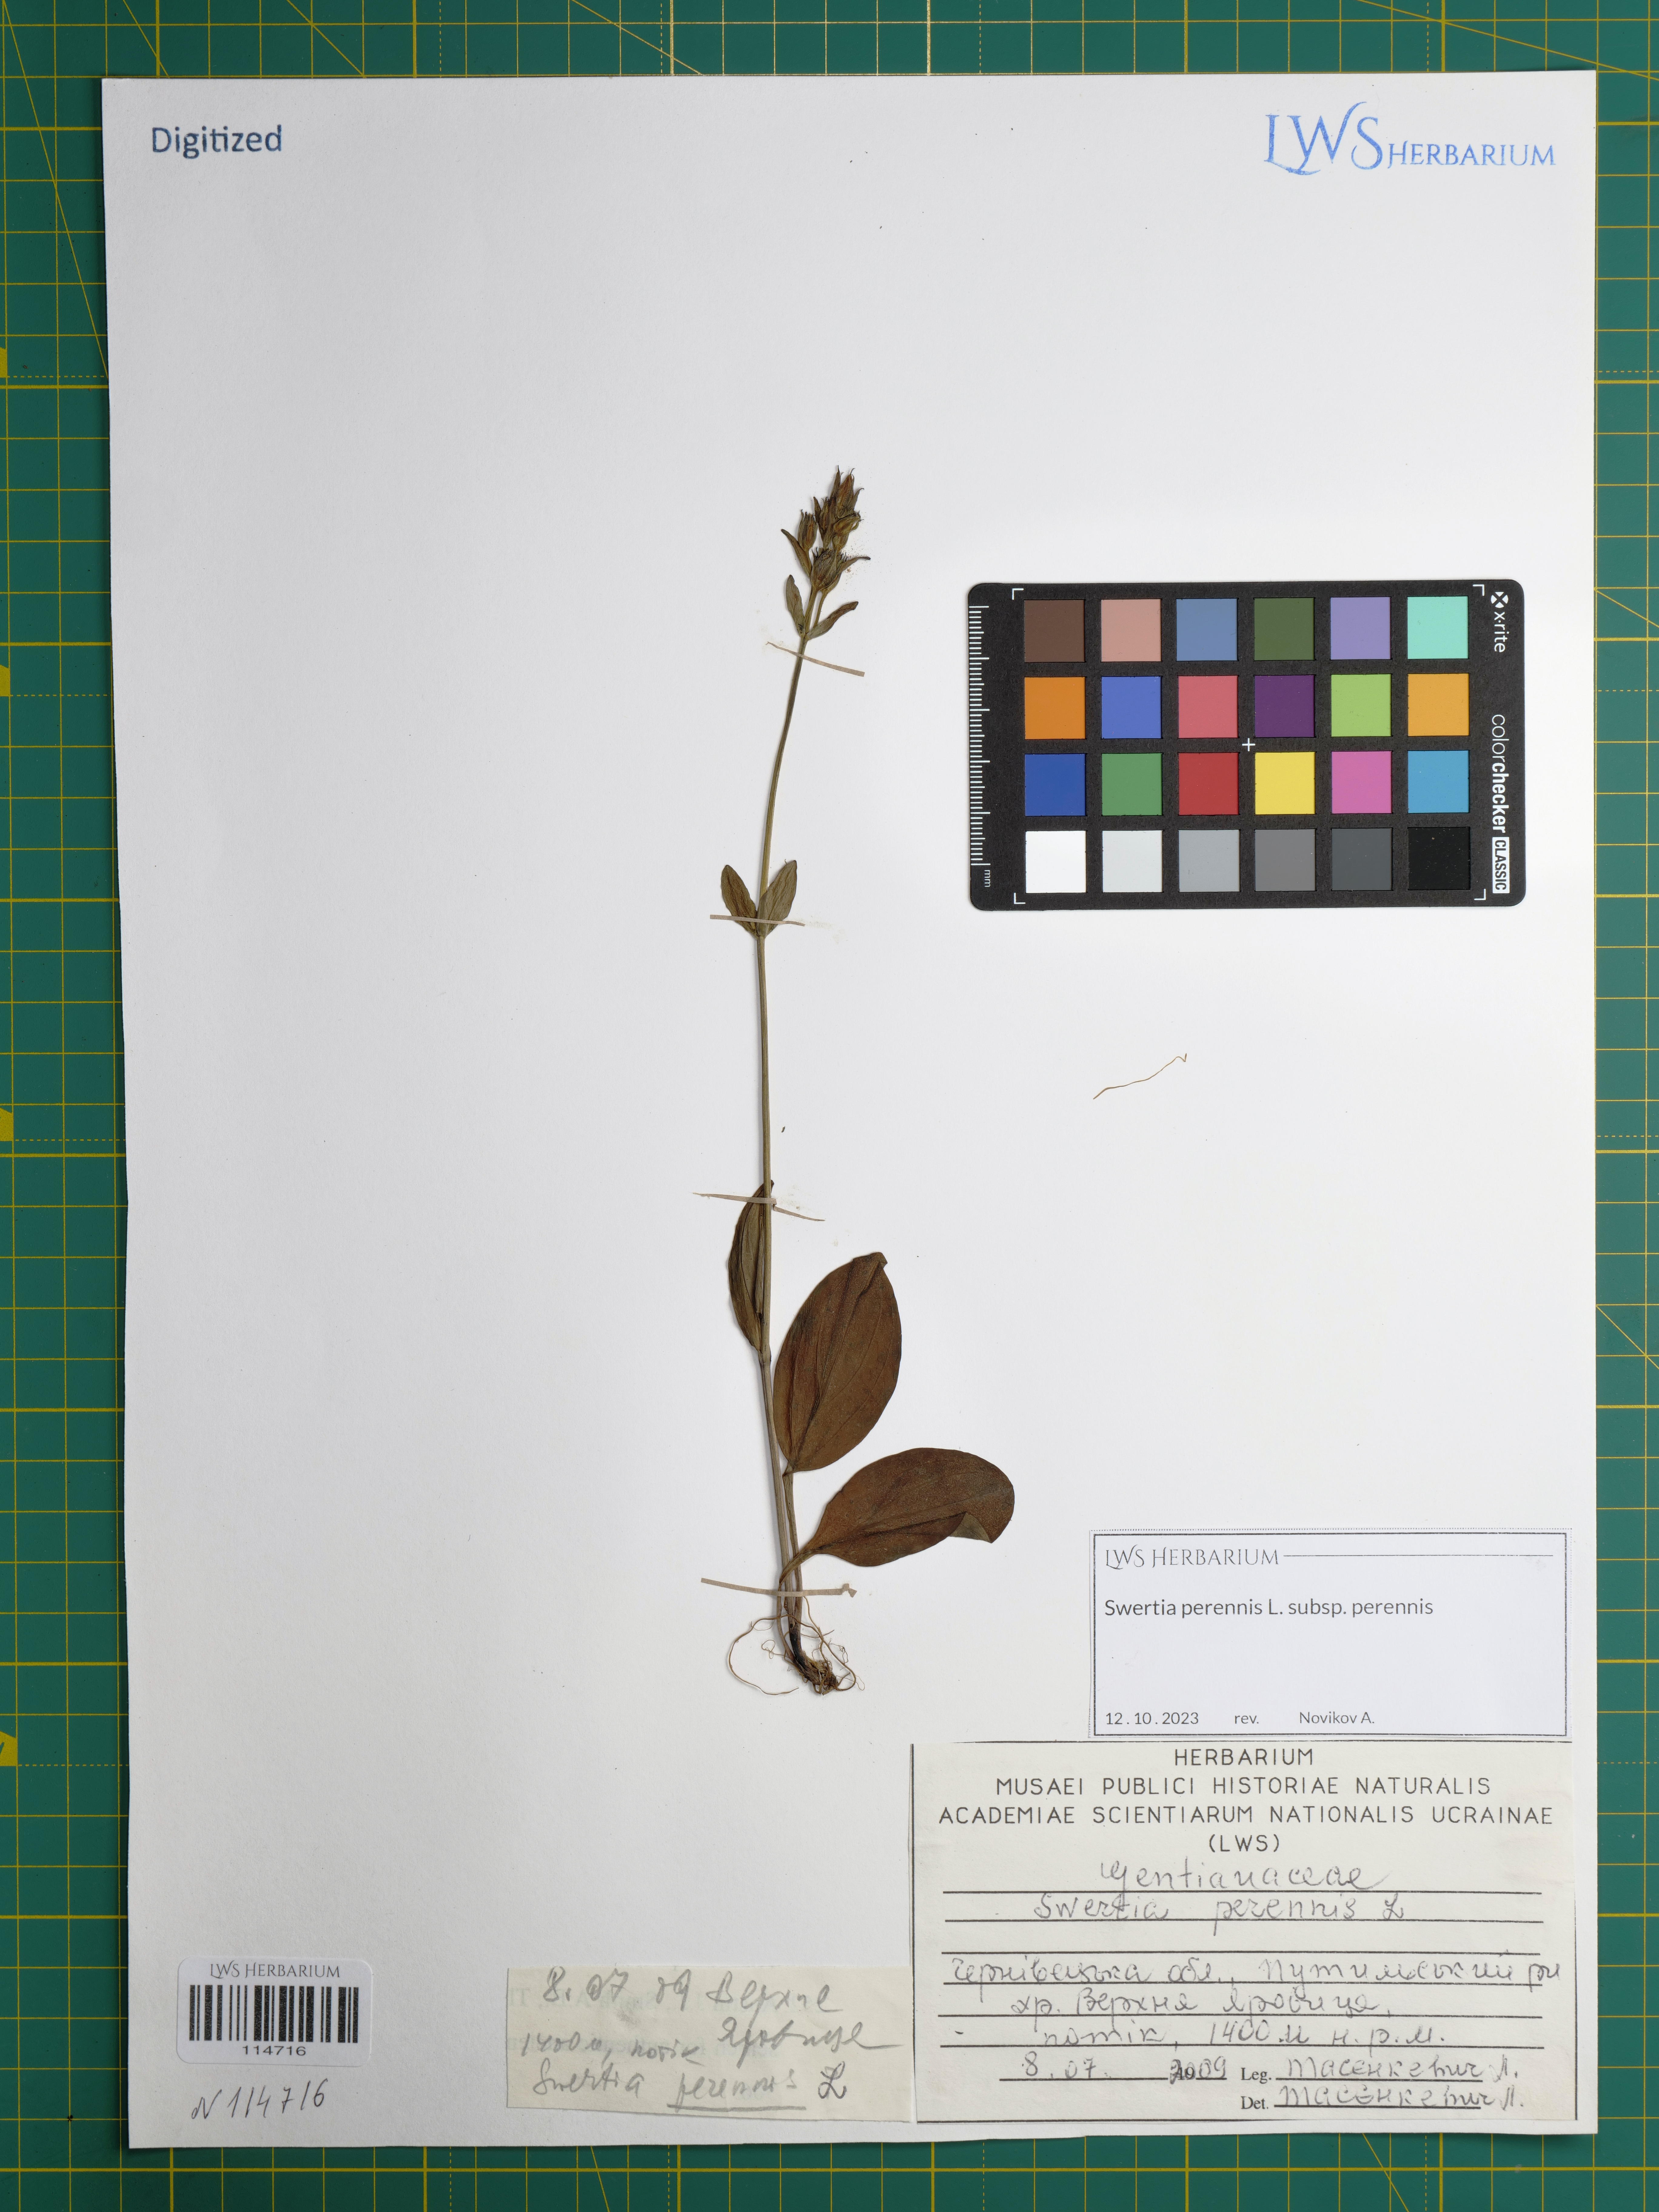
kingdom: Plantae
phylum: Tracheophyta
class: Magnoliopsida
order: Gentianales
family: Gentianaceae
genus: Swertia
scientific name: Swertia perennis
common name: Alpine bog swertia
